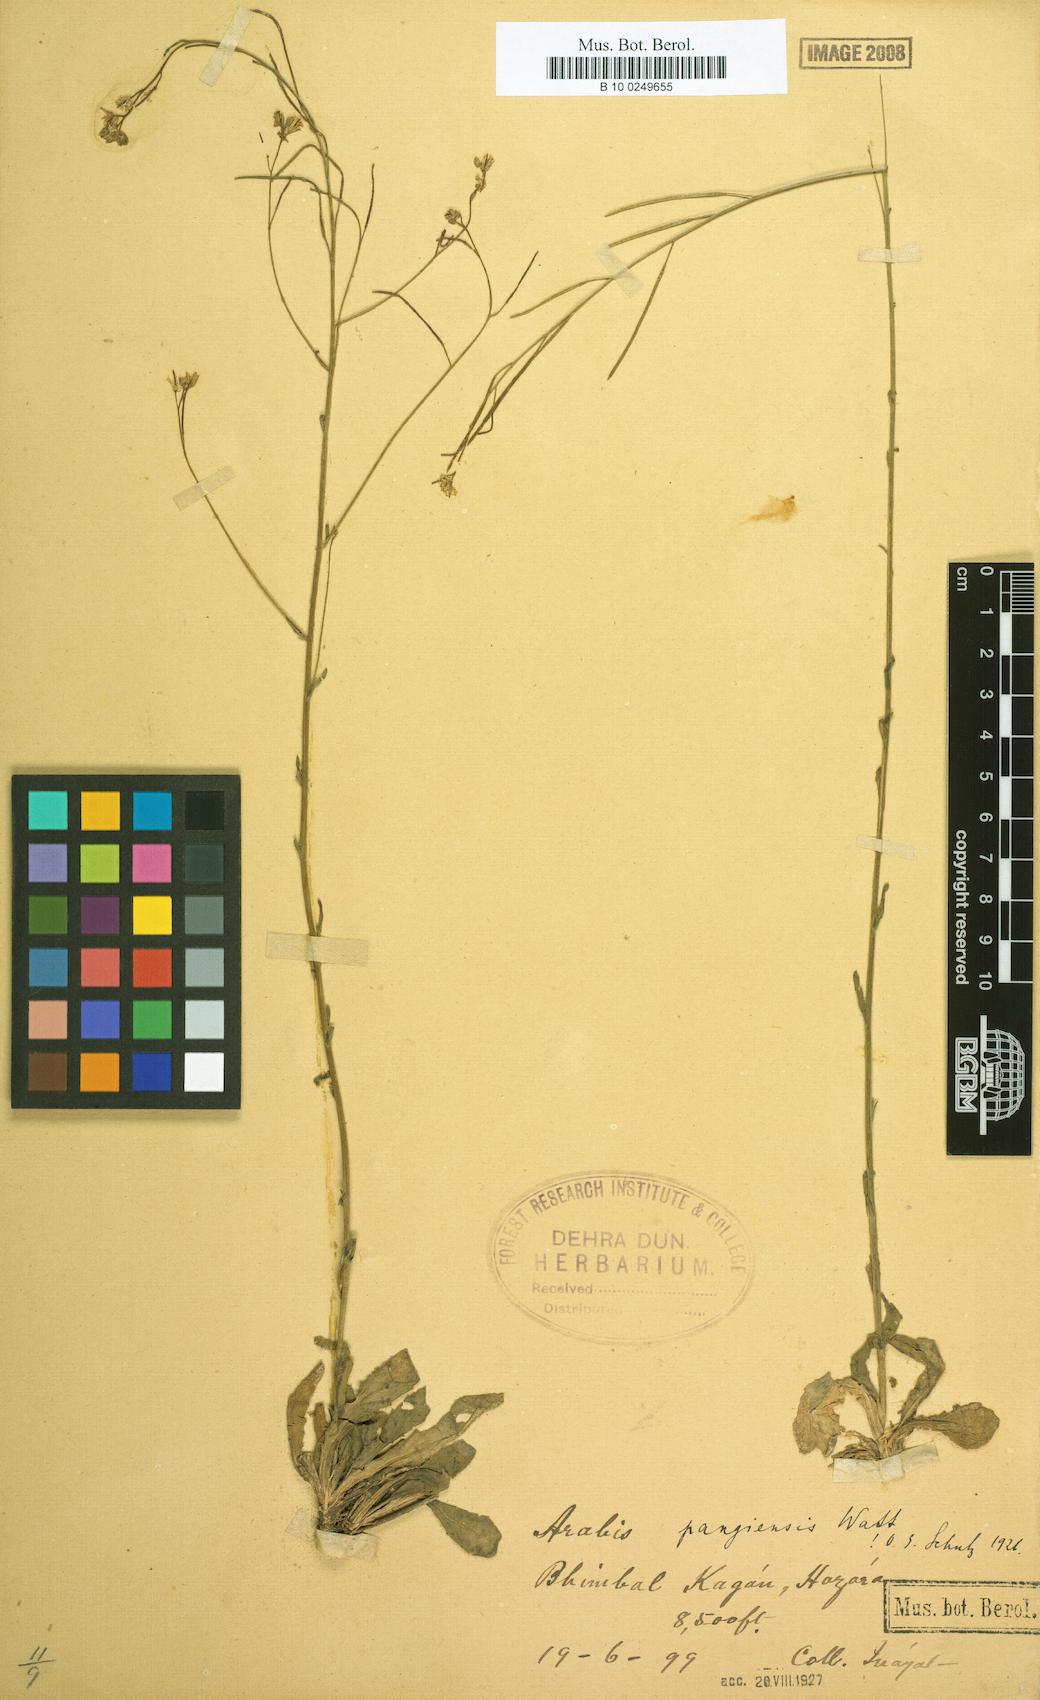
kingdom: Plantae
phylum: Tracheophyta
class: Magnoliopsida
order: Brassicales
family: Brassicaceae
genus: Arabis
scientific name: Arabis amplexicaulis
